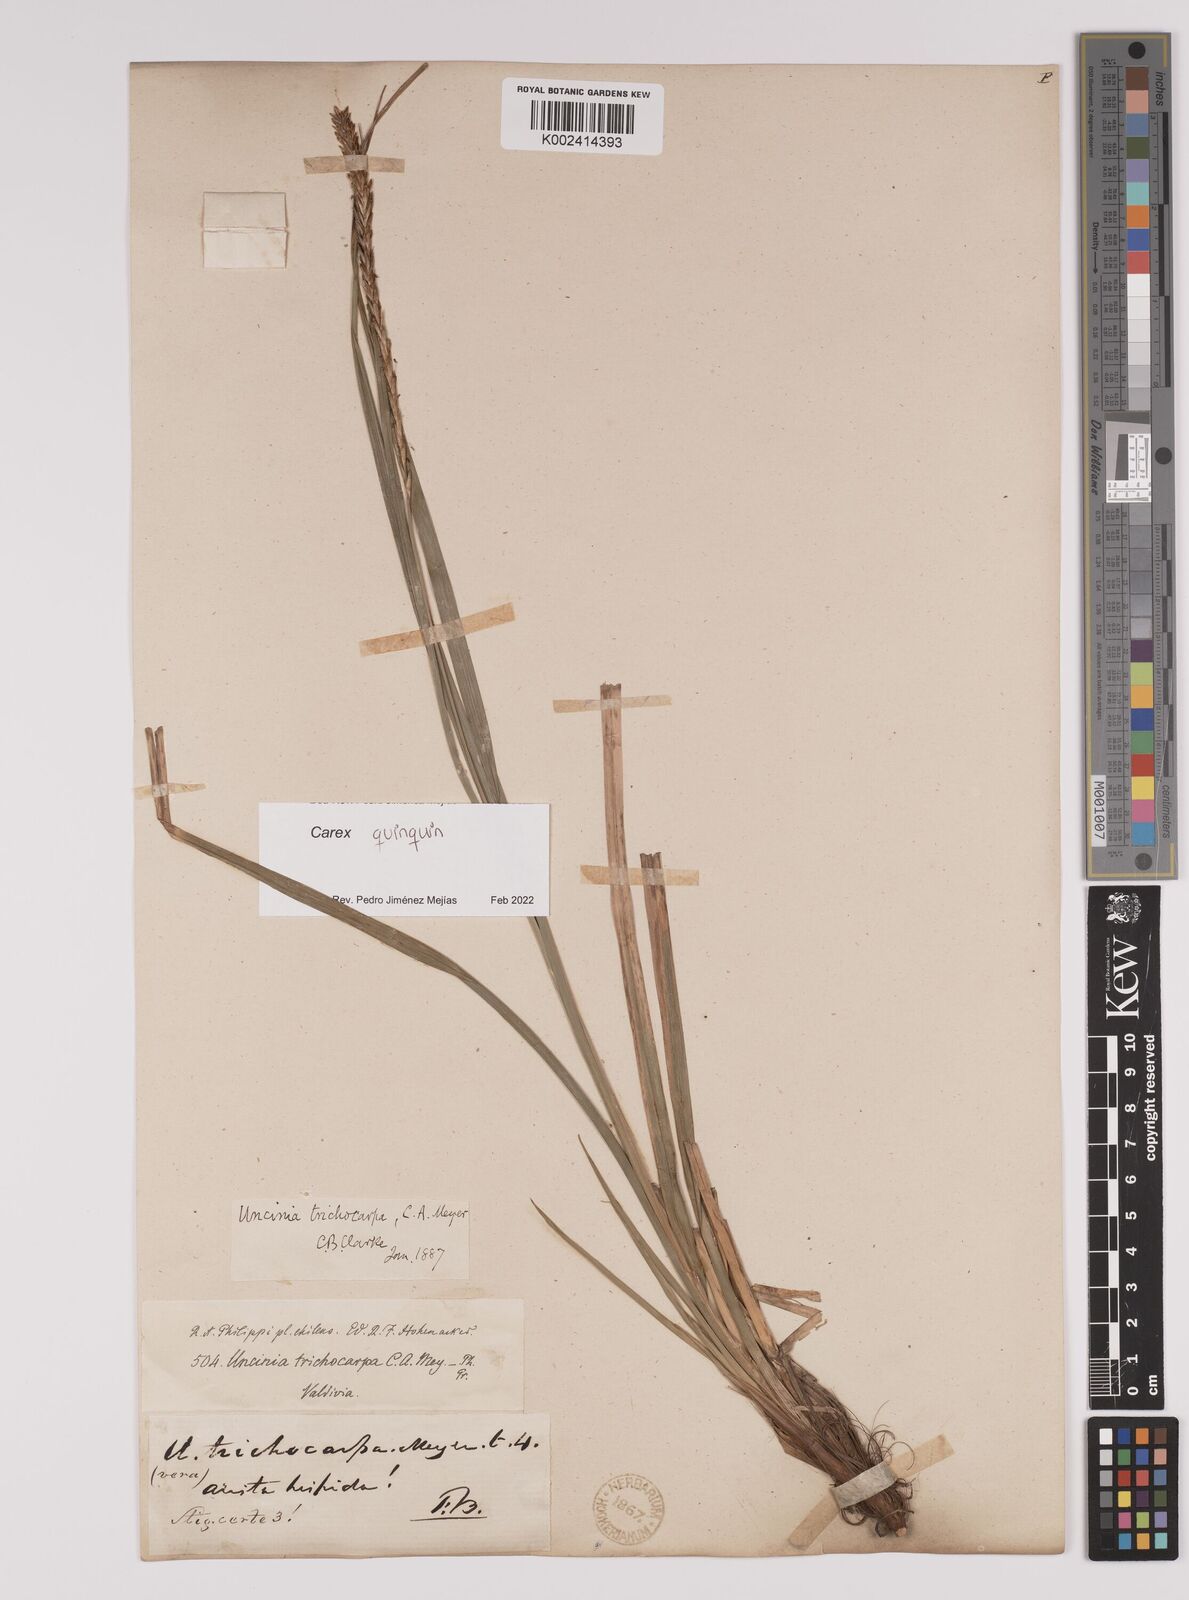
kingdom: Plantae
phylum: Tracheophyta
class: Liliopsida
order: Poales
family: Cyperaceae
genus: Carex
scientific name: Carex quinquin
